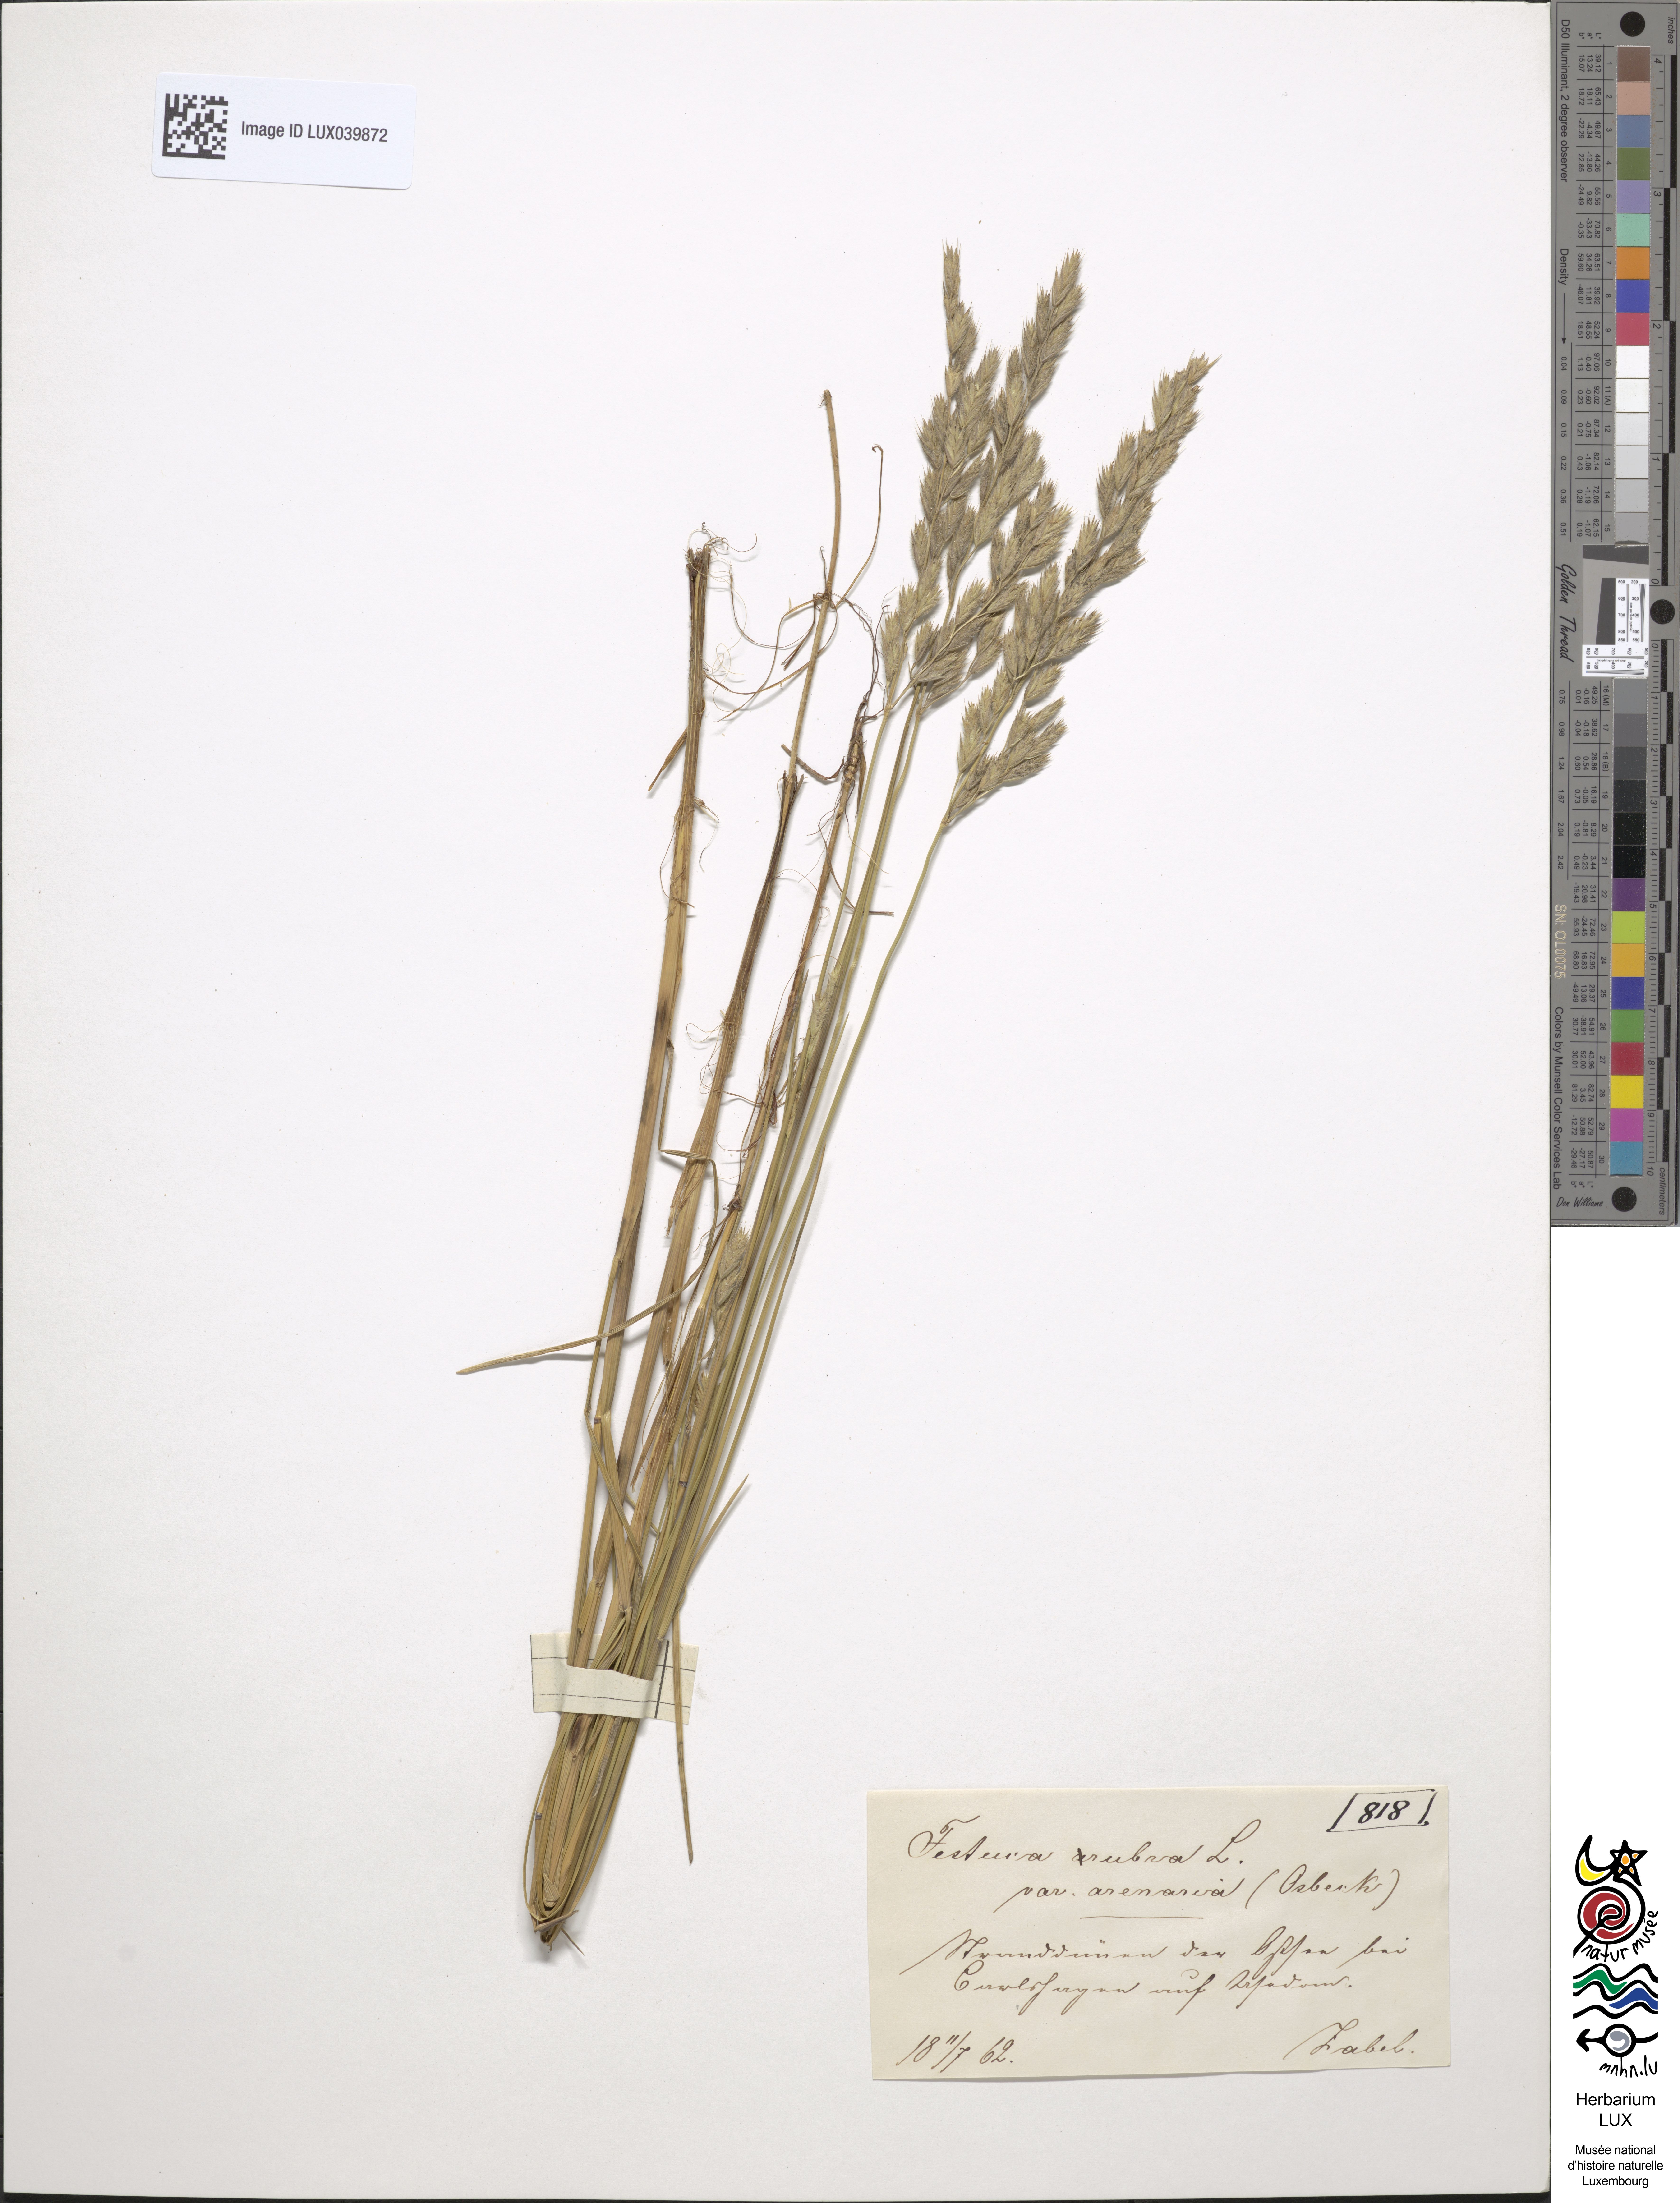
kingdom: Plantae
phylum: Tracheophyta
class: Liliopsida
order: Poales
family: Poaceae
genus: Festuca
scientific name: Festuca rubra
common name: Red fescue
